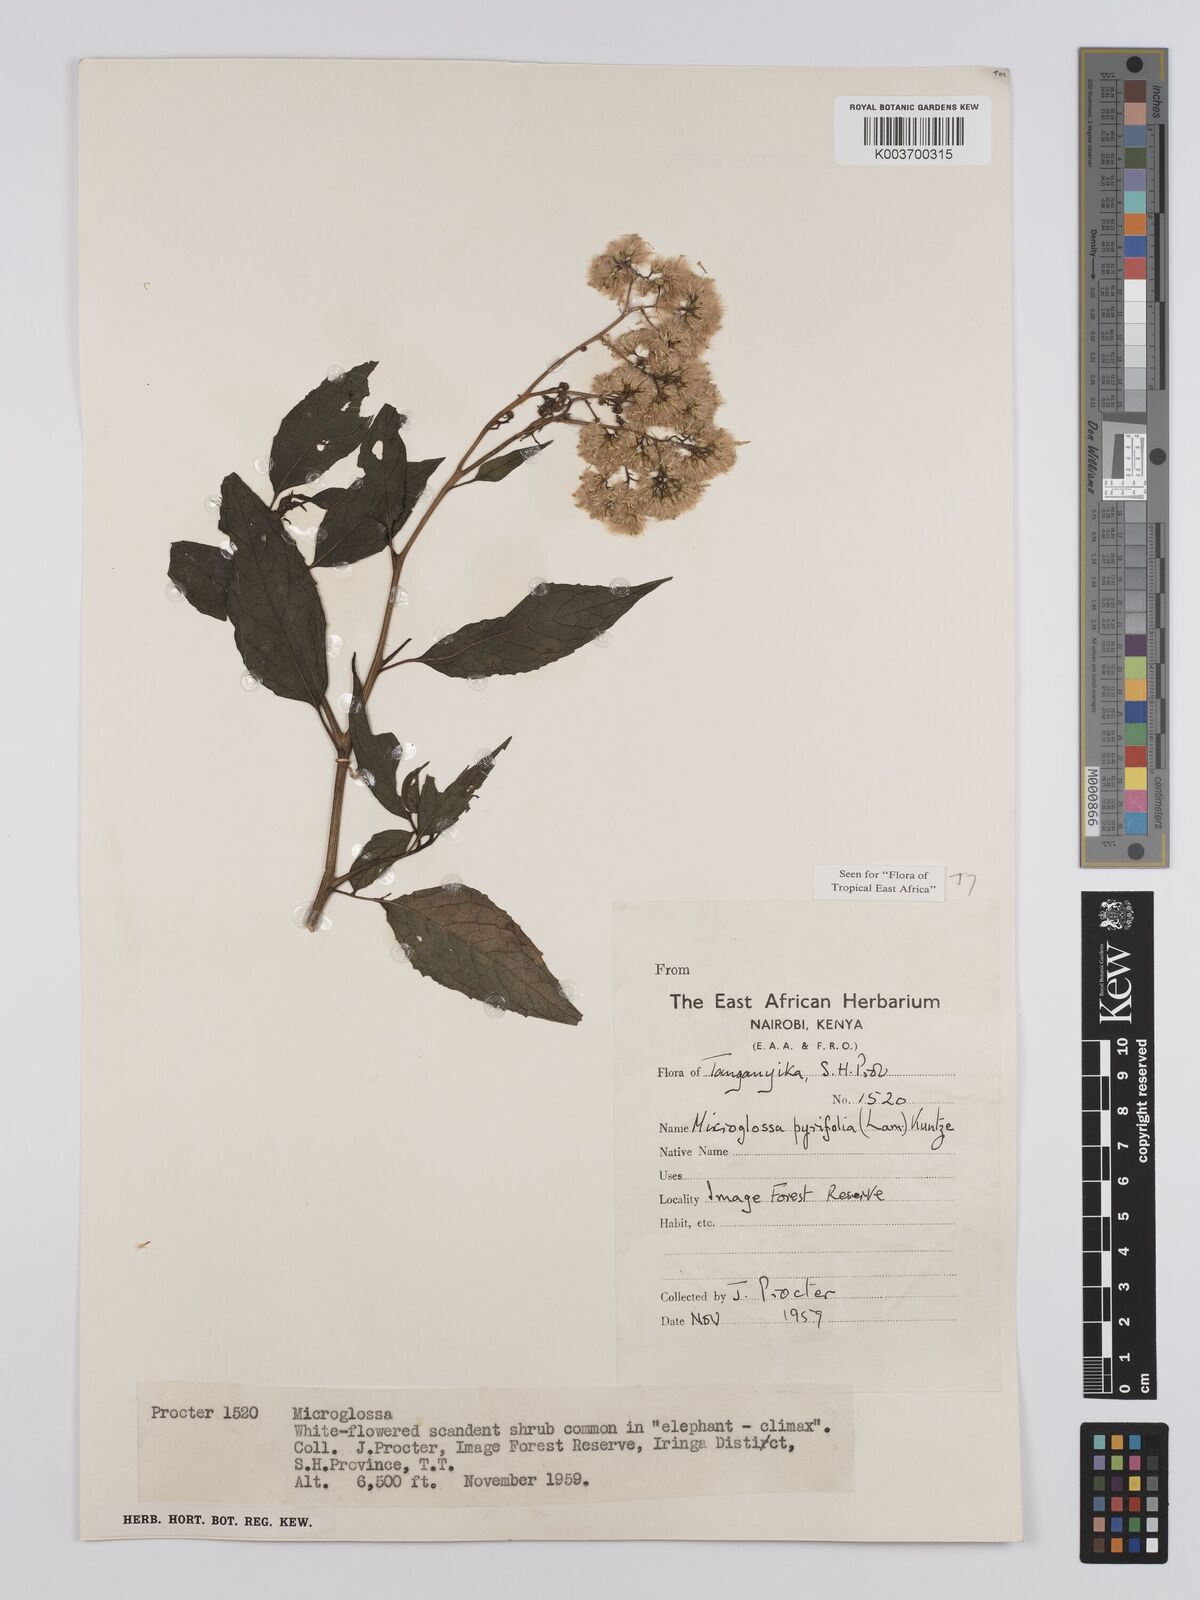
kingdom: Plantae
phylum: Tracheophyta
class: Magnoliopsida
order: Asterales
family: Asteraceae
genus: Microglossa
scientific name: Microglossa densiflora
